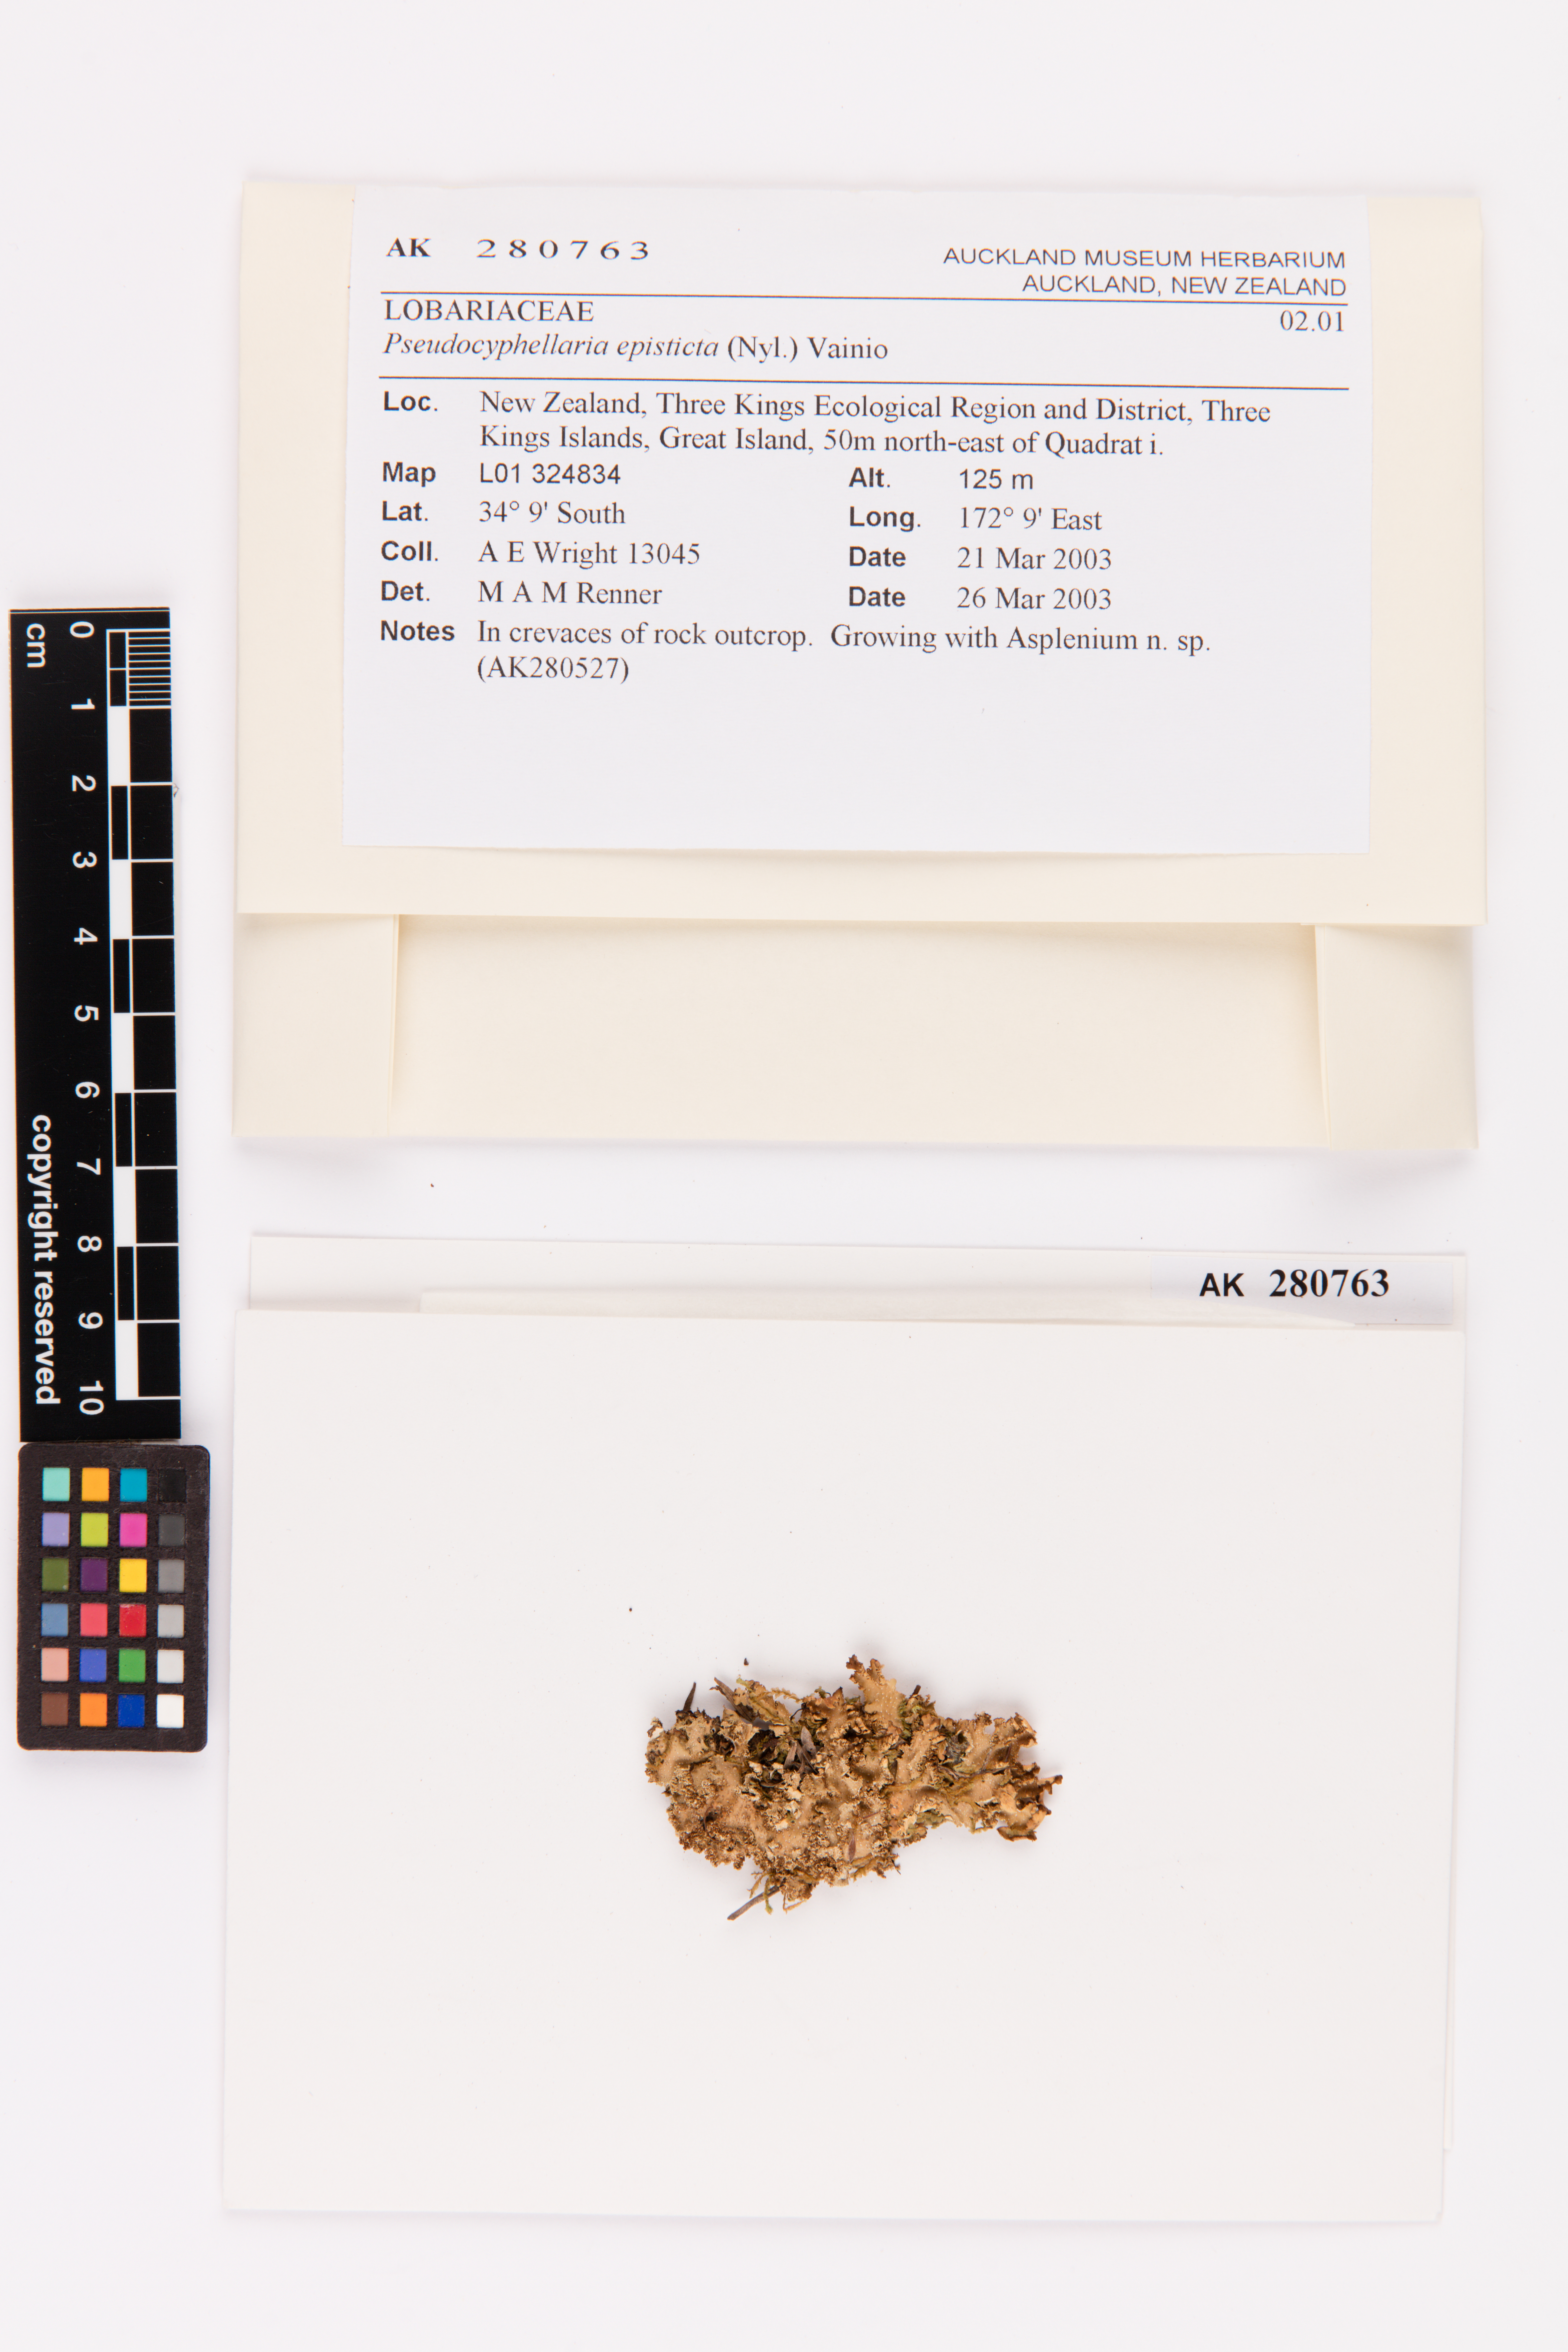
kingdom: Fungi
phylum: Ascomycota
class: Lecanoromycetes
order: Peltigerales
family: Lobariaceae
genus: Pseudocyphellaria
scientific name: Pseudocyphellaria episticta
